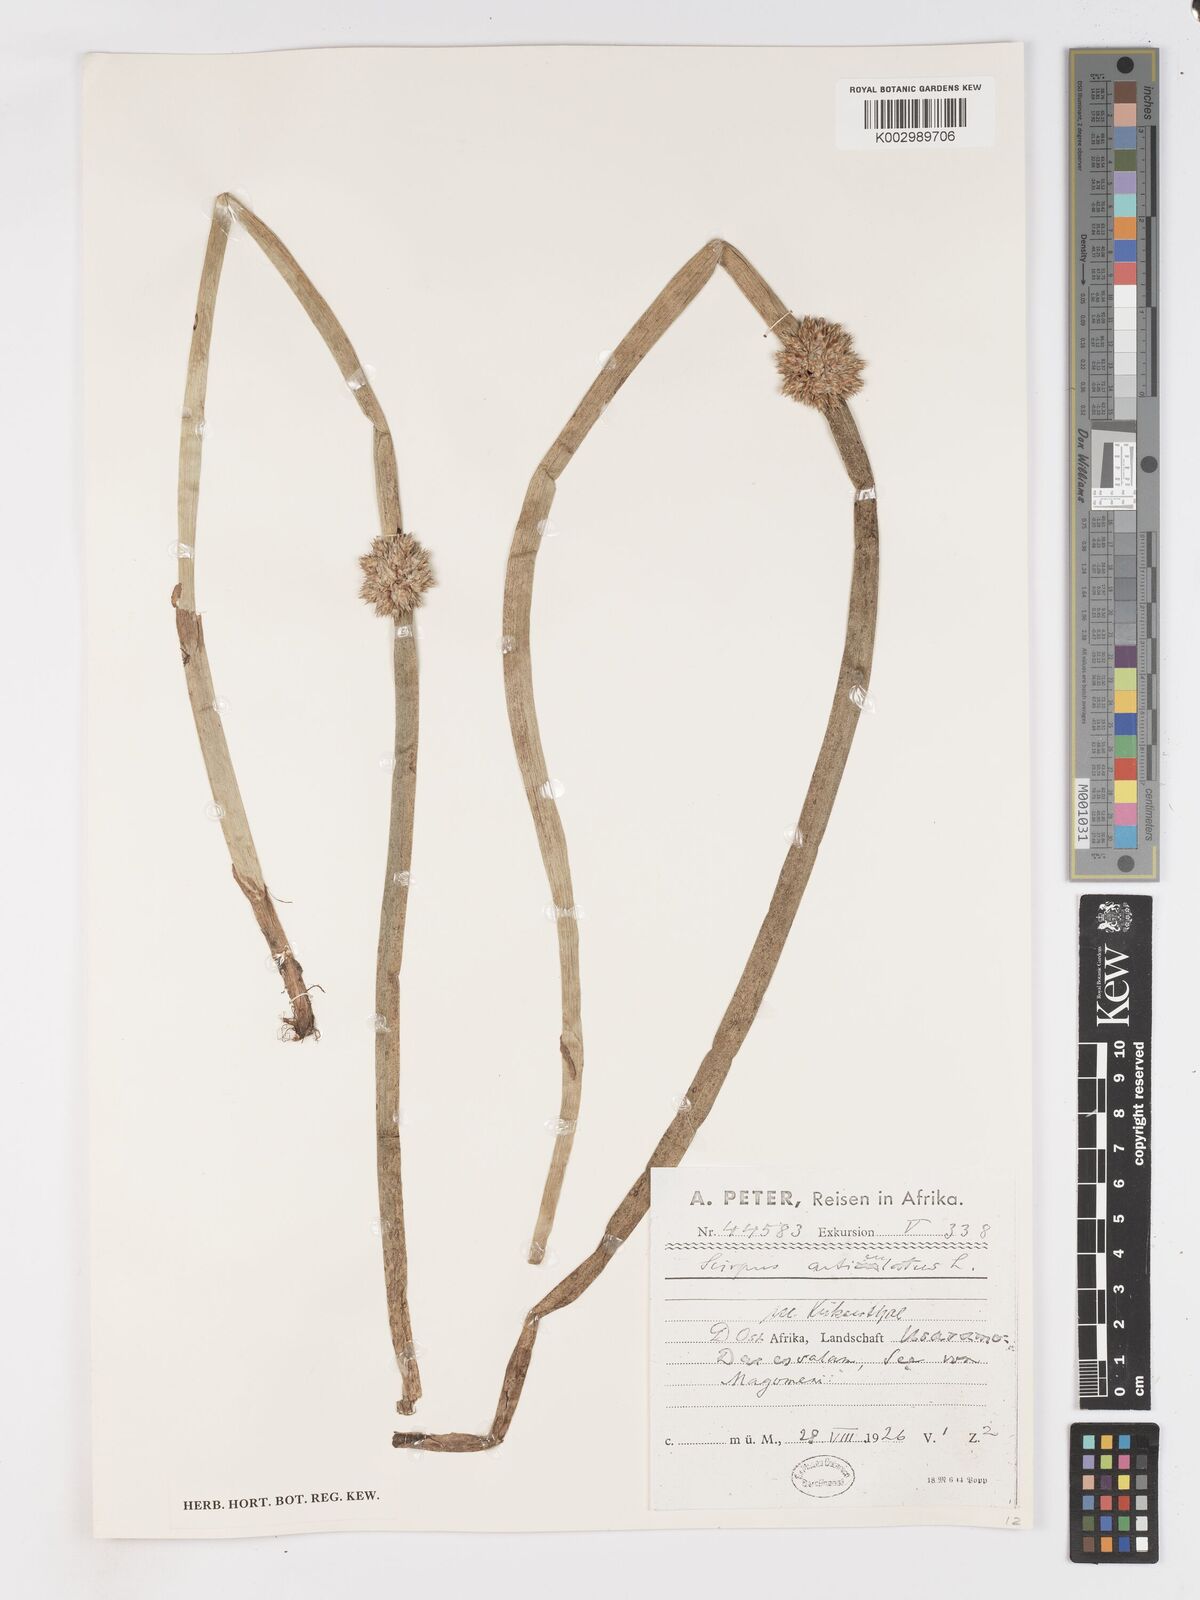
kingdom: Plantae
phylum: Tracheophyta
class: Liliopsida
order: Poales
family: Cyperaceae
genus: Schoenoplectiella
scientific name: Schoenoplectiella articulata
